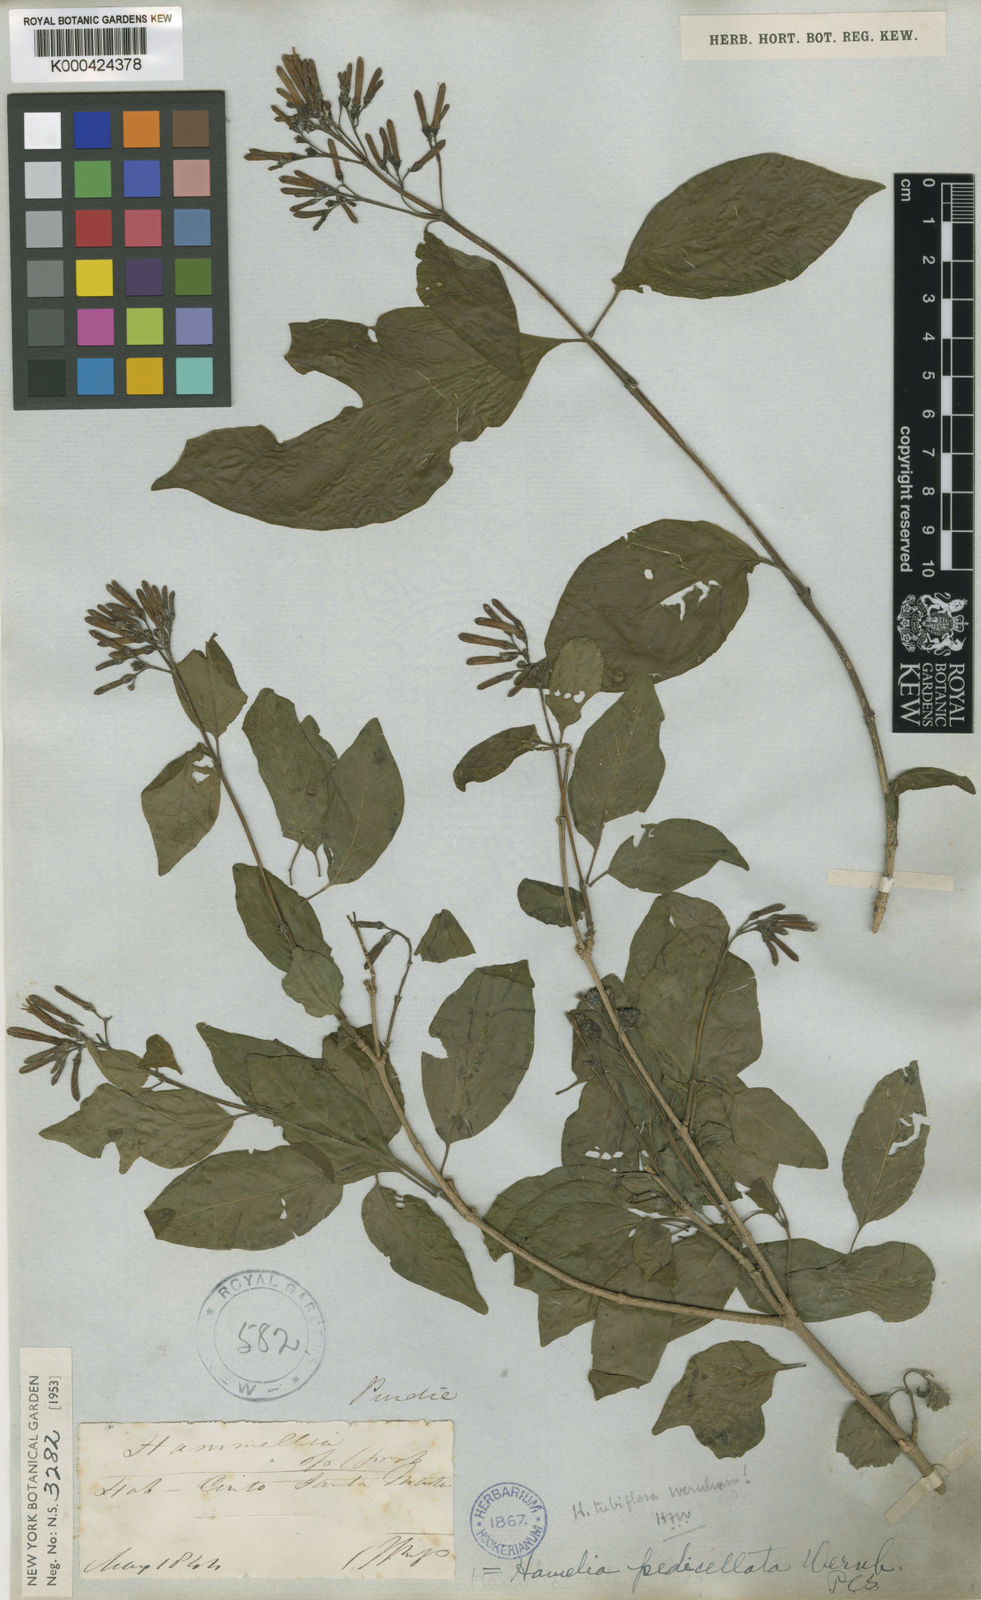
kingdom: Plantae
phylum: Tracheophyta
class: Magnoliopsida
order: Gentianales
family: Rubiaceae
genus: Hamelia
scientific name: Hamelia patens
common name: Redhead
